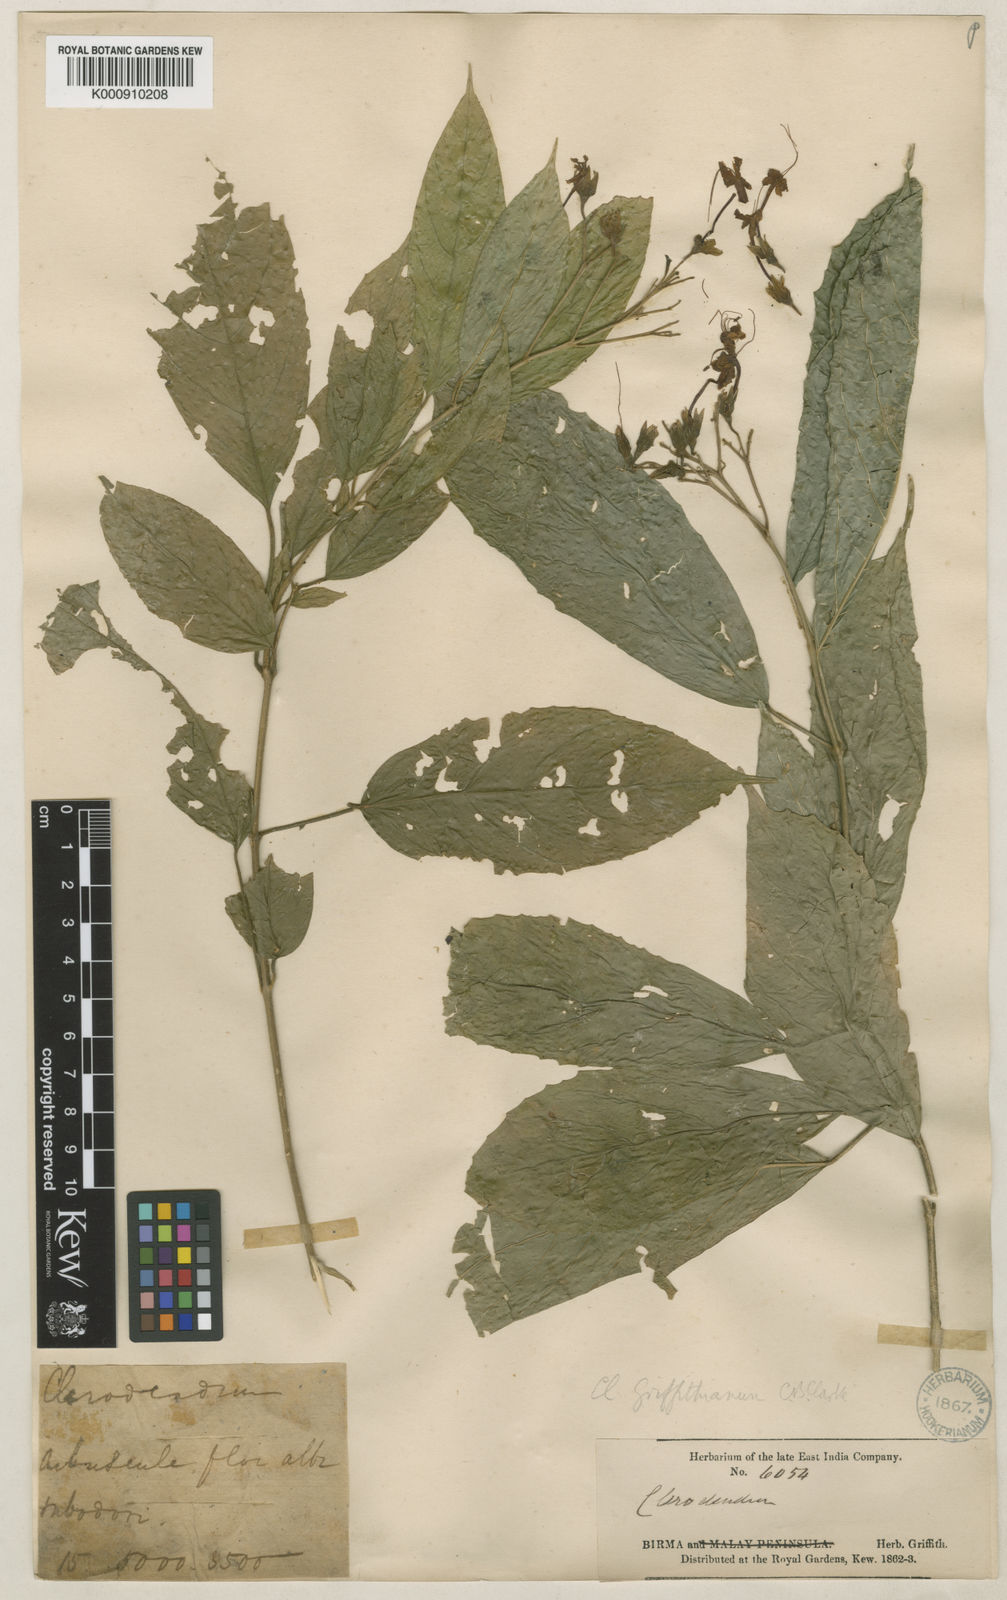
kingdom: Plantae
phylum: Tracheophyta
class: Magnoliopsida
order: Lamiales
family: Lamiaceae
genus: Clerodendrum
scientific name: Clerodendrum griffithianum
